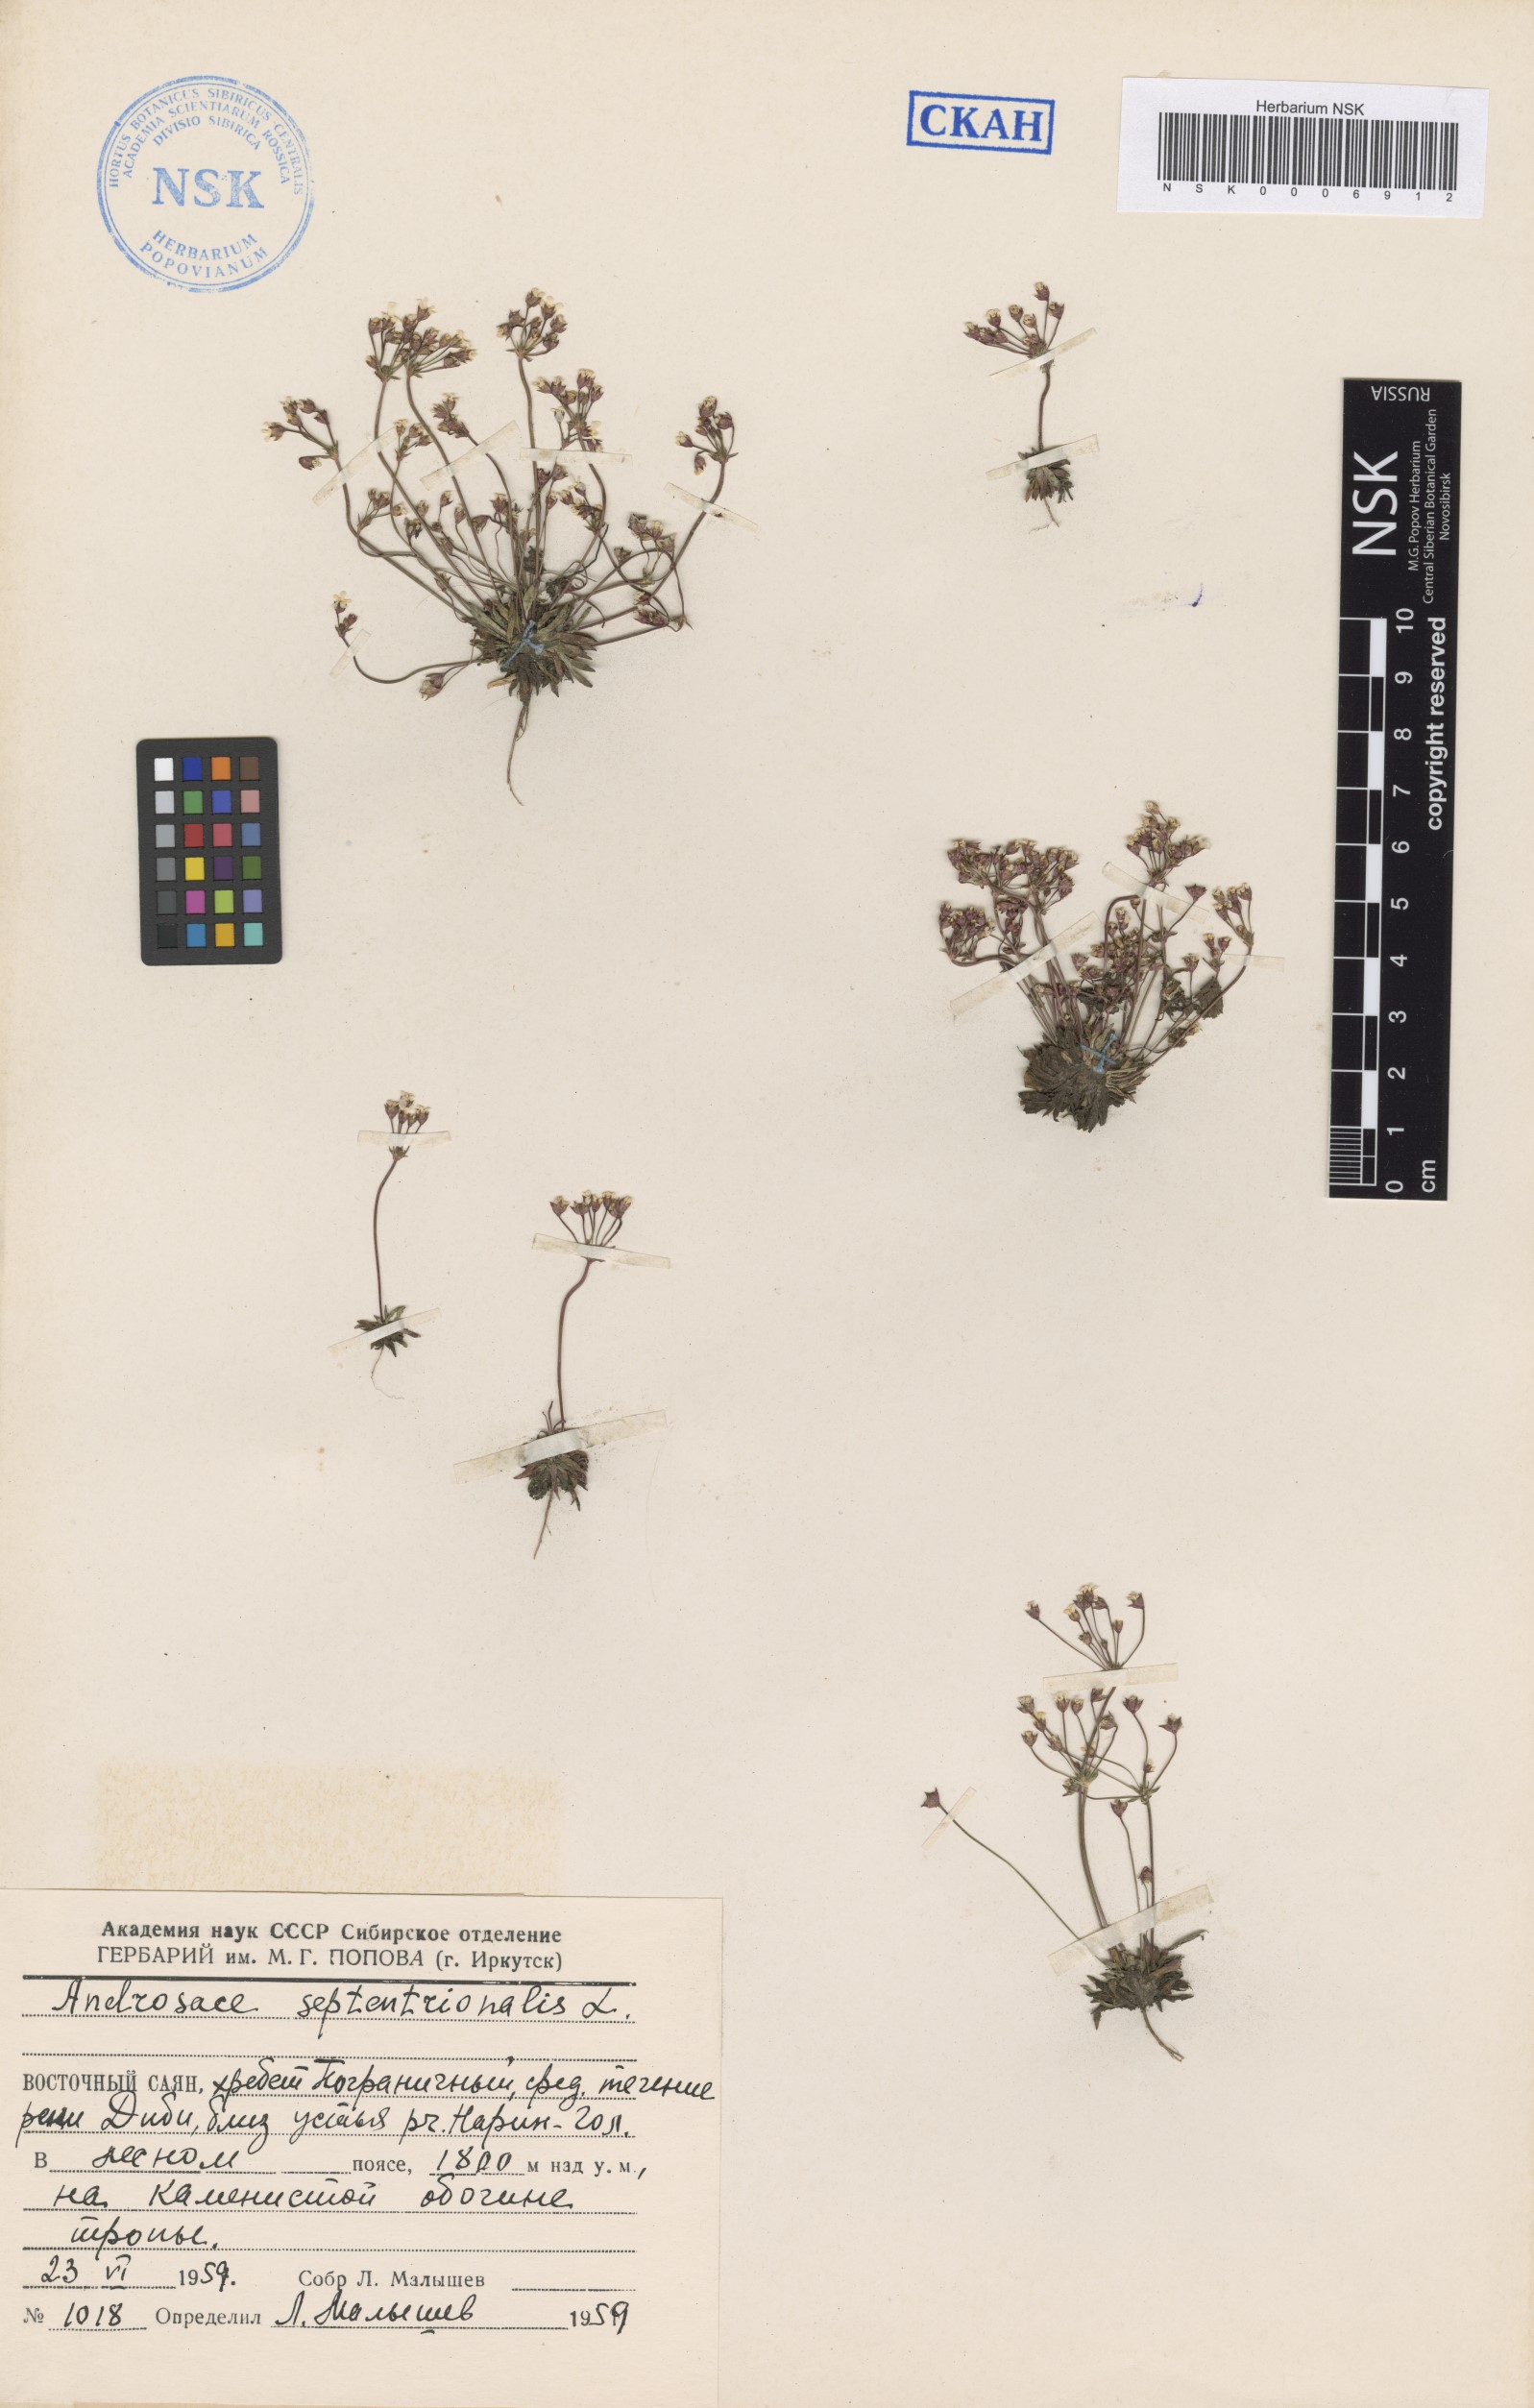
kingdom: Plantae
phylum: Tracheophyta
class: Magnoliopsida
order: Ericales
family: Primulaceae
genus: Androsace
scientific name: Androsace septentrionalis
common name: Hairy northern fairy-candelabra
